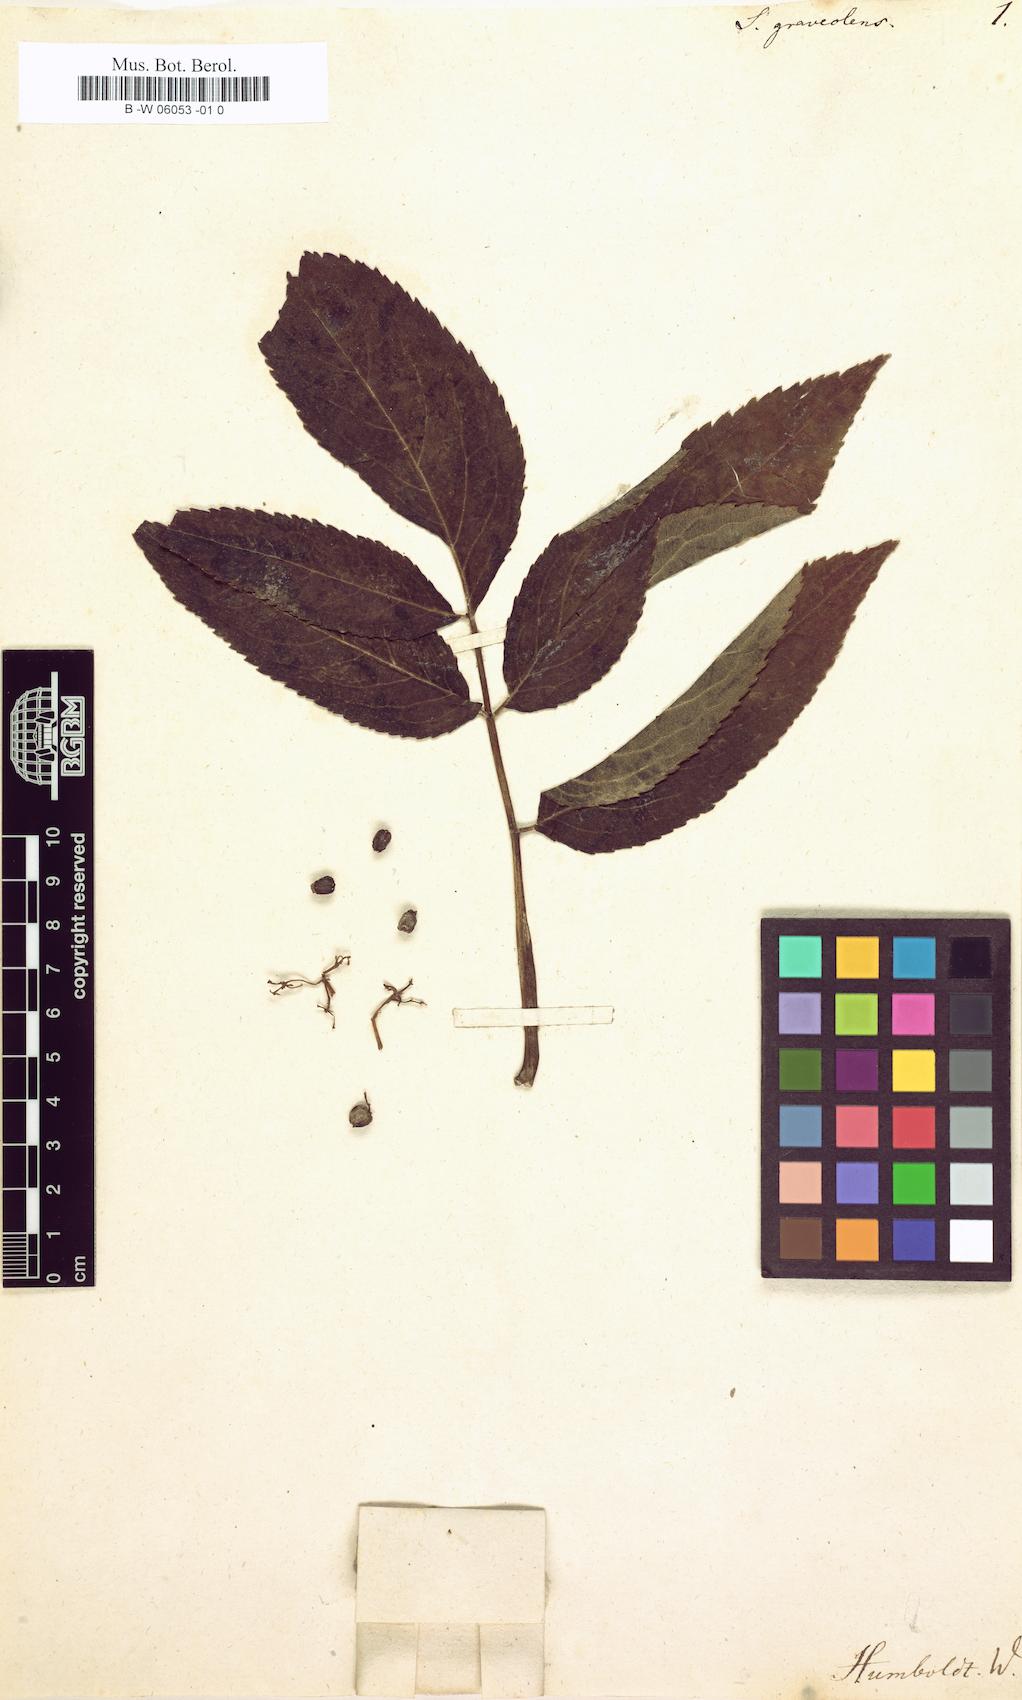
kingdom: Plantae
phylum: Tracheophyta
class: Magnoliopsida
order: Dipsacales
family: Viburnaceae
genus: Sambucus
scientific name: Sambucus nigra
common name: Elder
